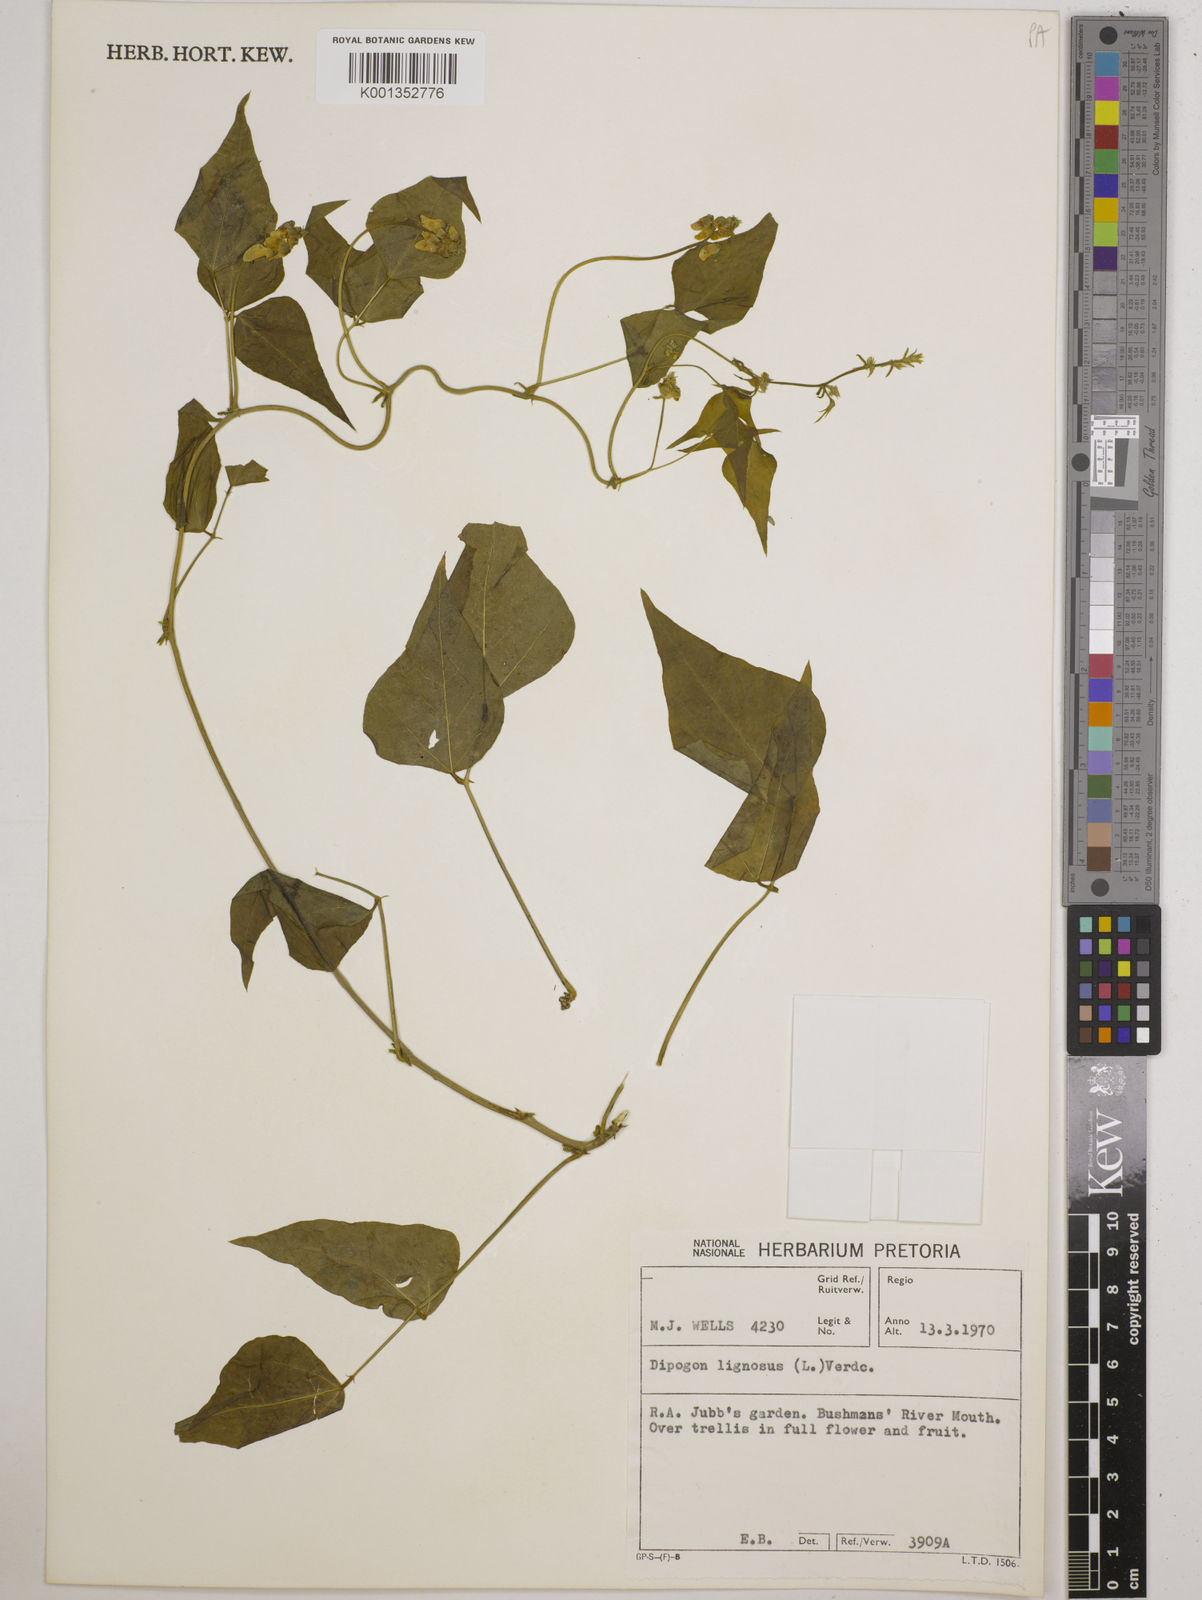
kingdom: Plantae
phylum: Tracheophyta
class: Magnoliopsida
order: Fabales
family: Fabaceae
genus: Dipogon
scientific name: Dipogon lignosus
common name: Okie bean
